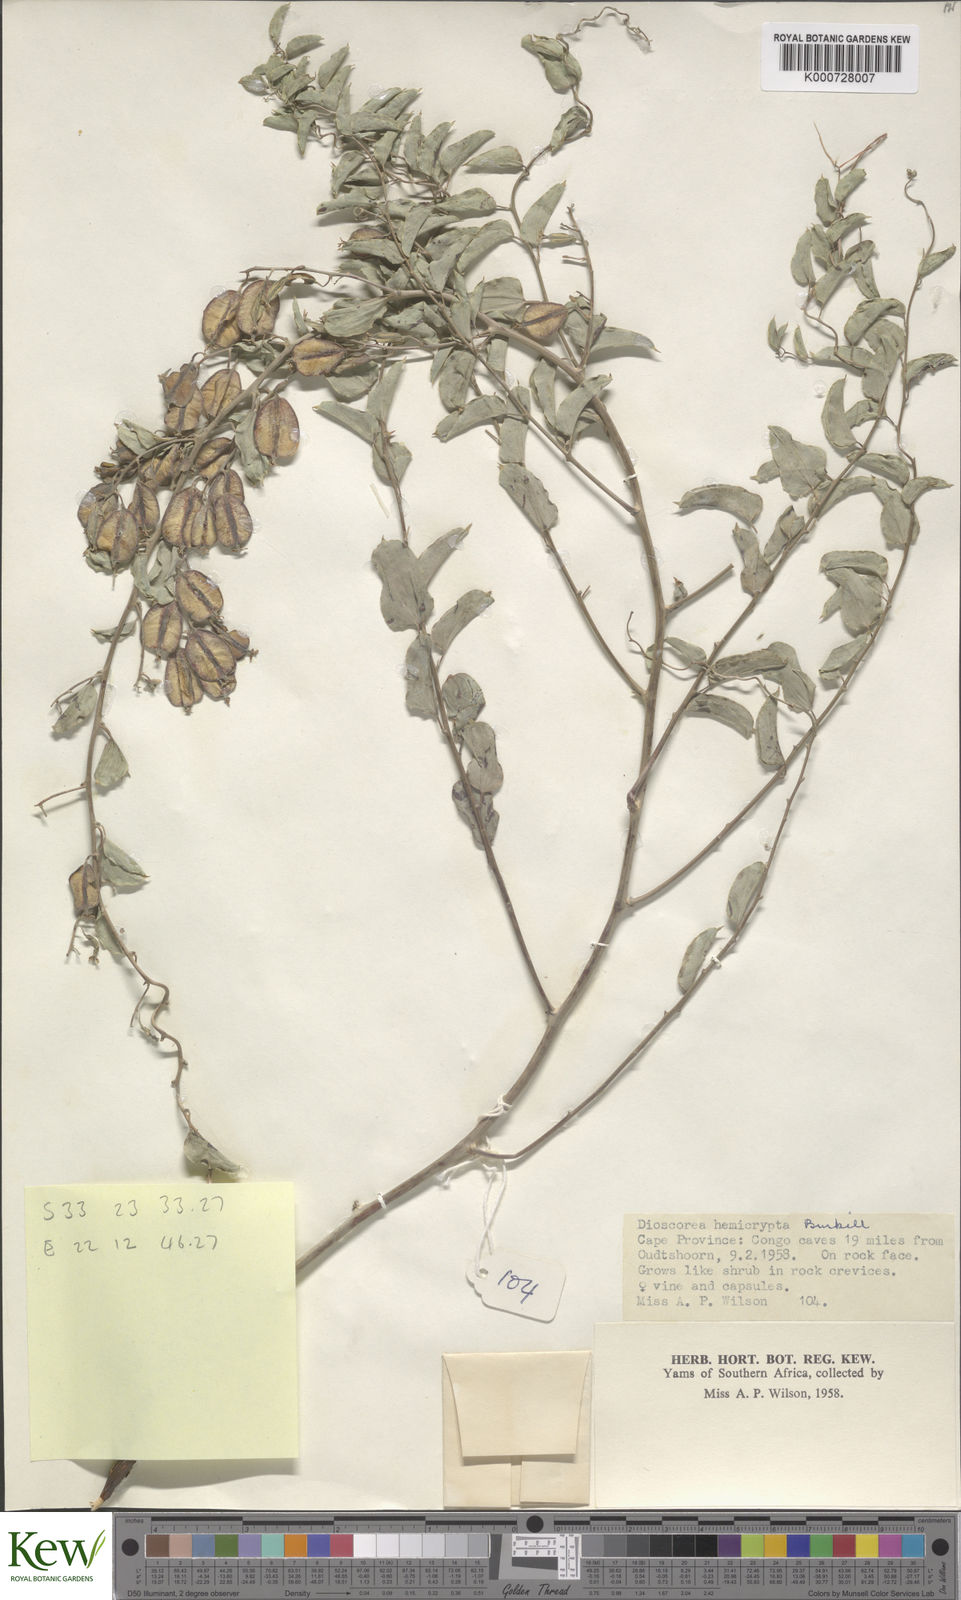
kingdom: Plantae
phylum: Tracheophyta
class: Liliopsida
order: Dioscoreales
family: Dioscoreaceae
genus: Dioscorea
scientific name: Dioscorea hemicrypta
